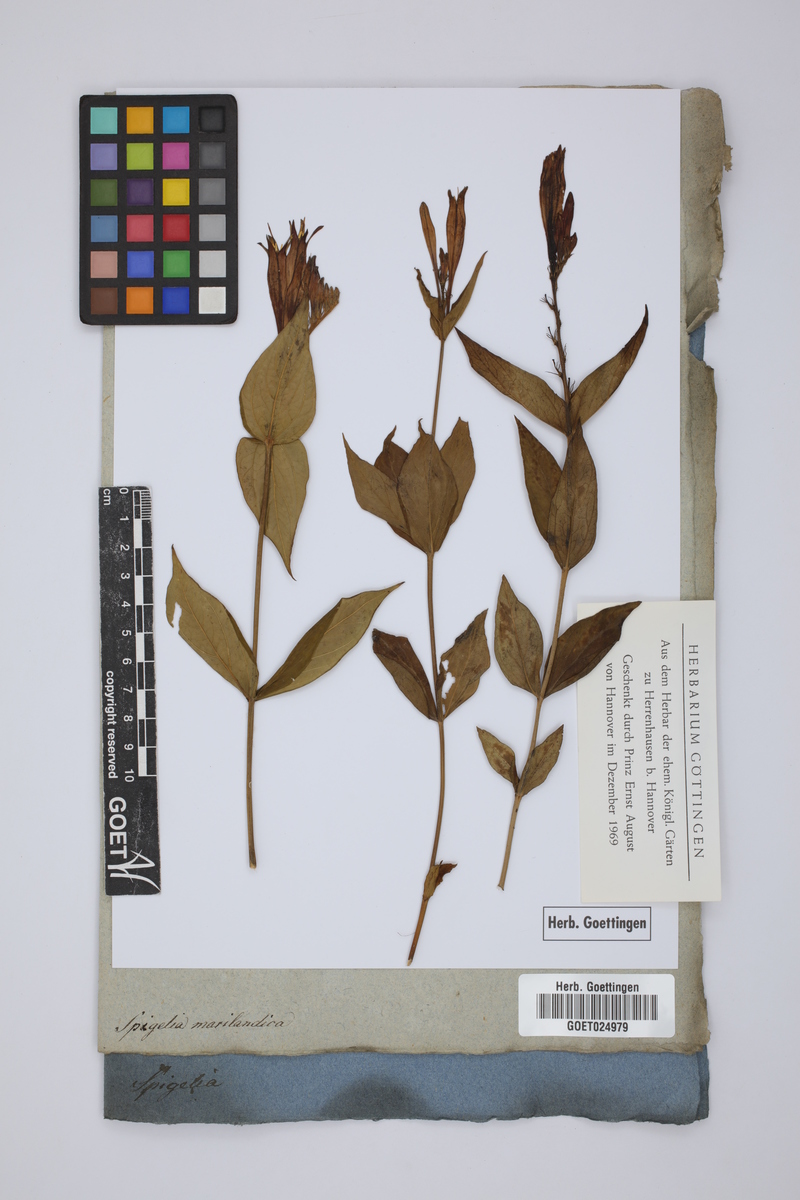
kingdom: Plantae
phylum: Tracheophyta
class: Magnoliopsida
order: Gentianales
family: Loganiaceae
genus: Spigelia
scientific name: Spigelia marilandica
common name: Indian-pink
